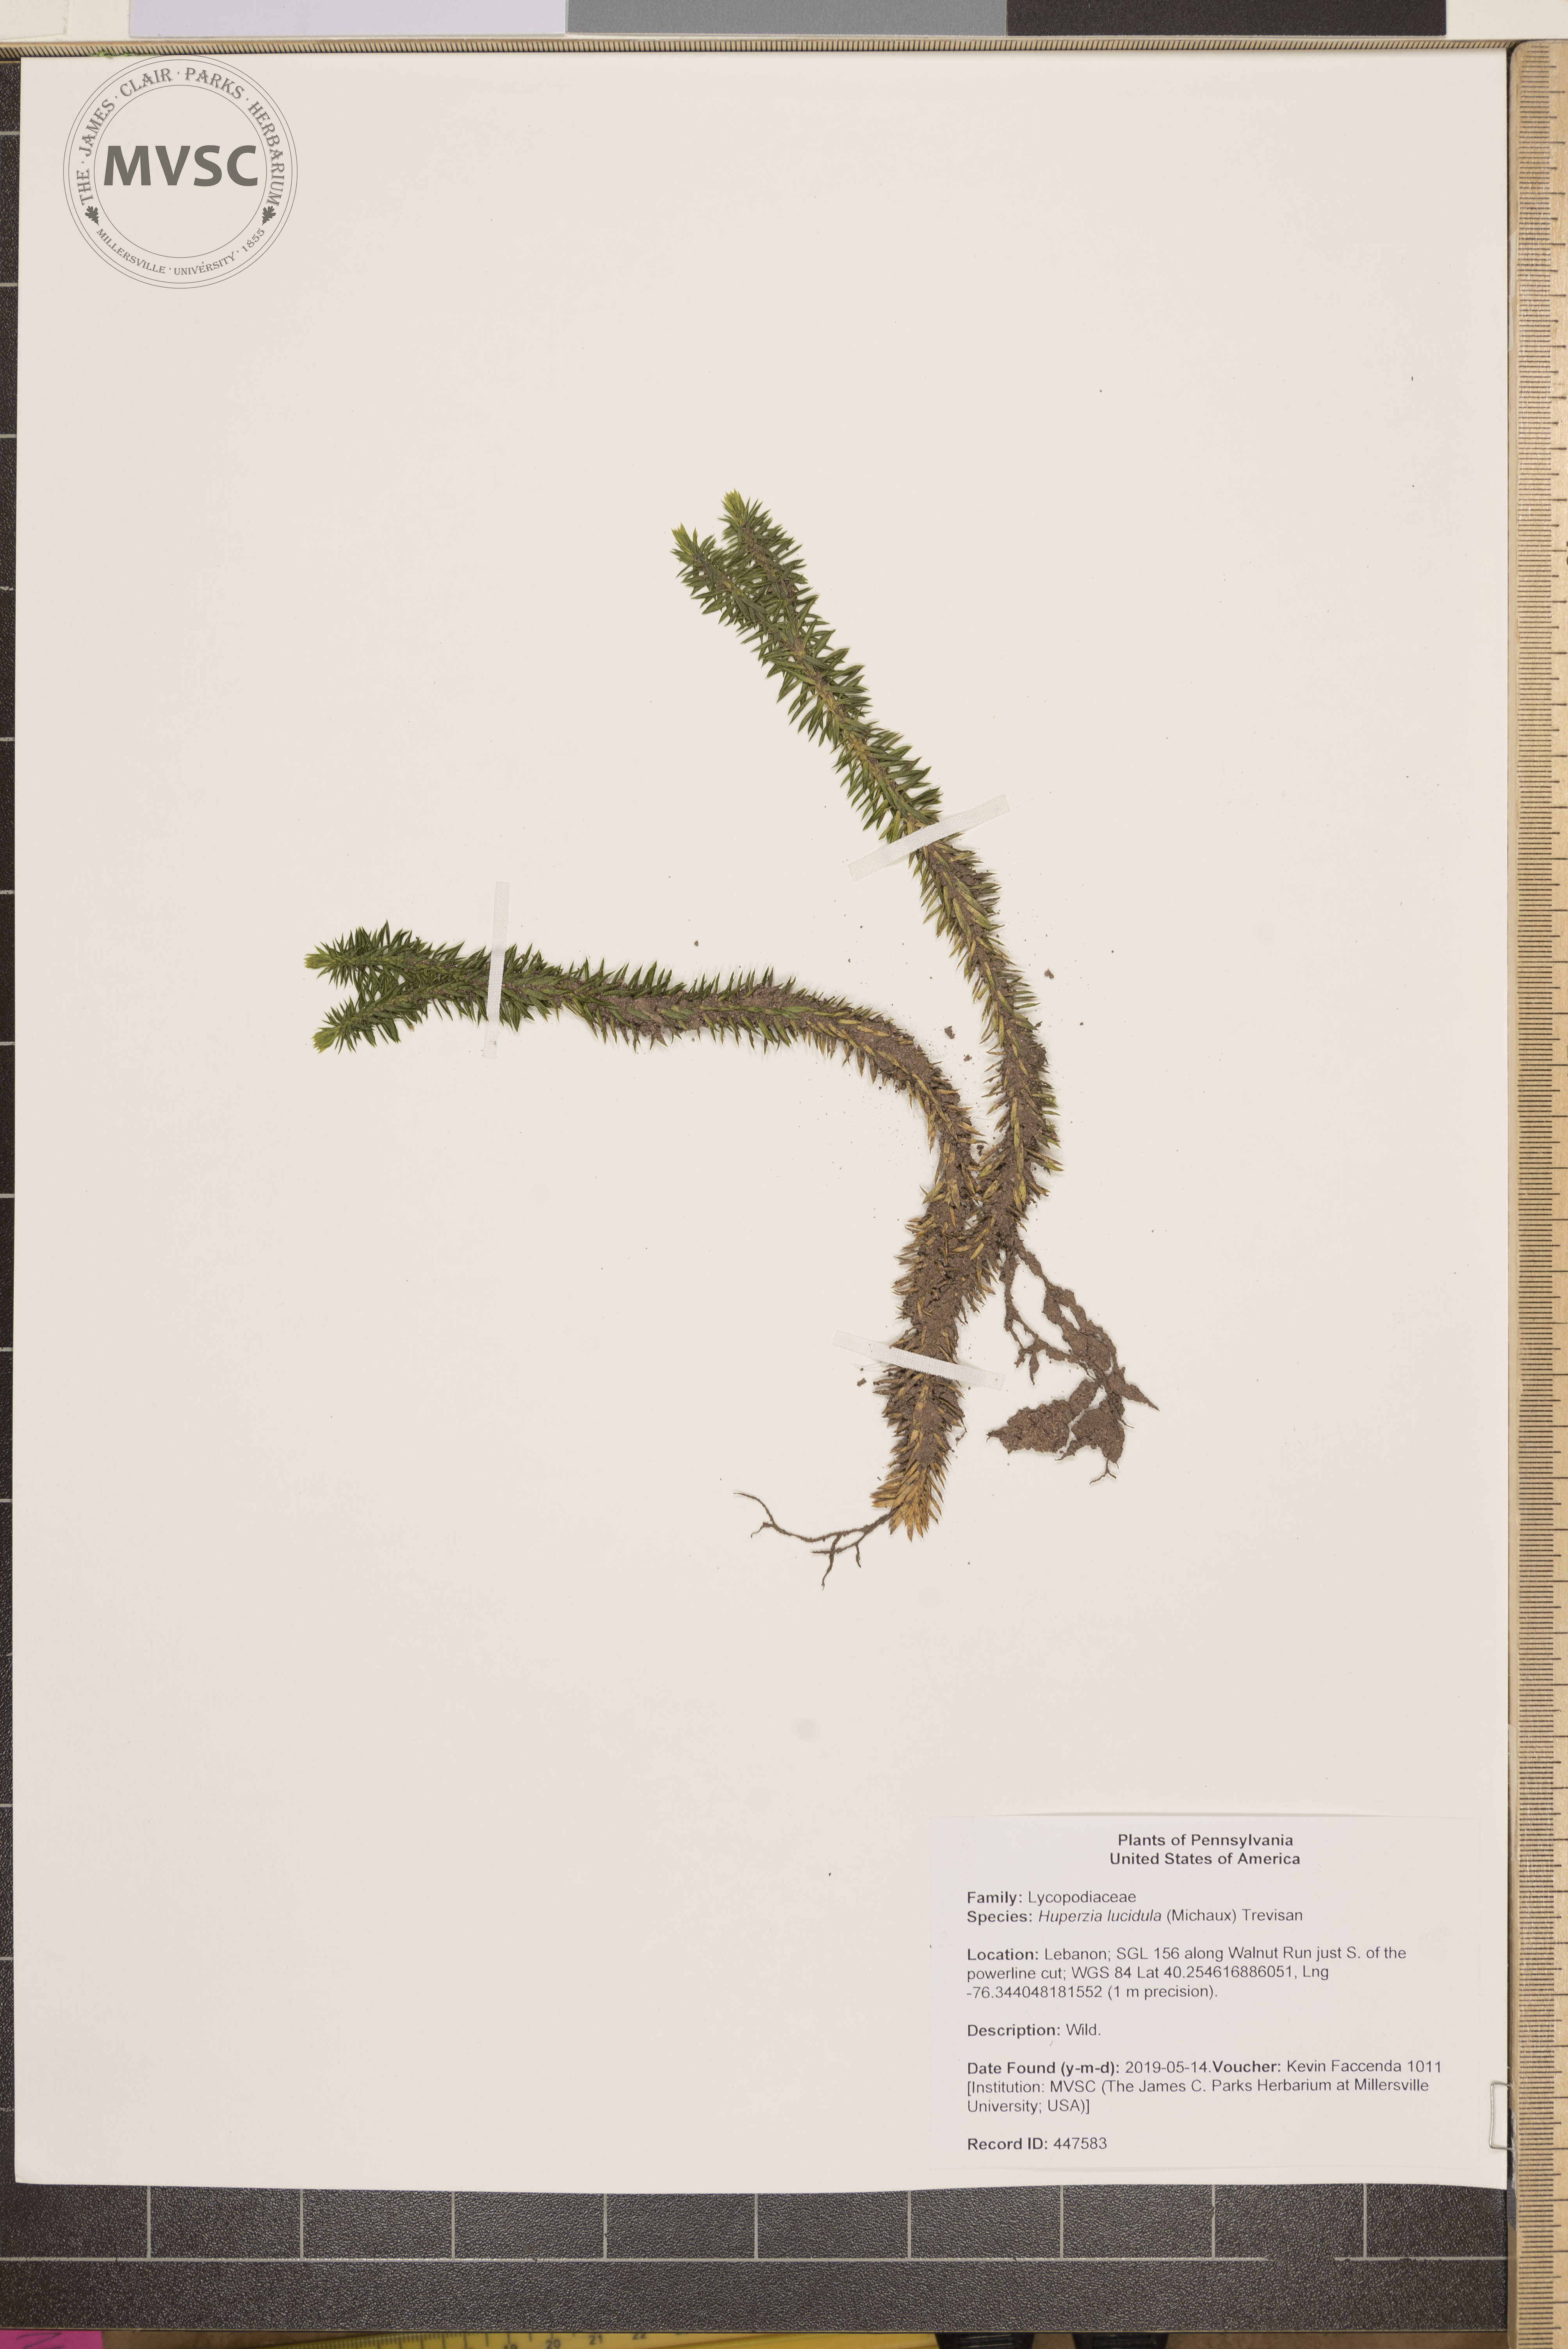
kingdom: Plantae
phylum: Tracheophyta
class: Lycopodiopsida
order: Lycopodiales
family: Lycopodiaceae
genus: Huperzia
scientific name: Huperzia lucidula
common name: Shining clubmoss
